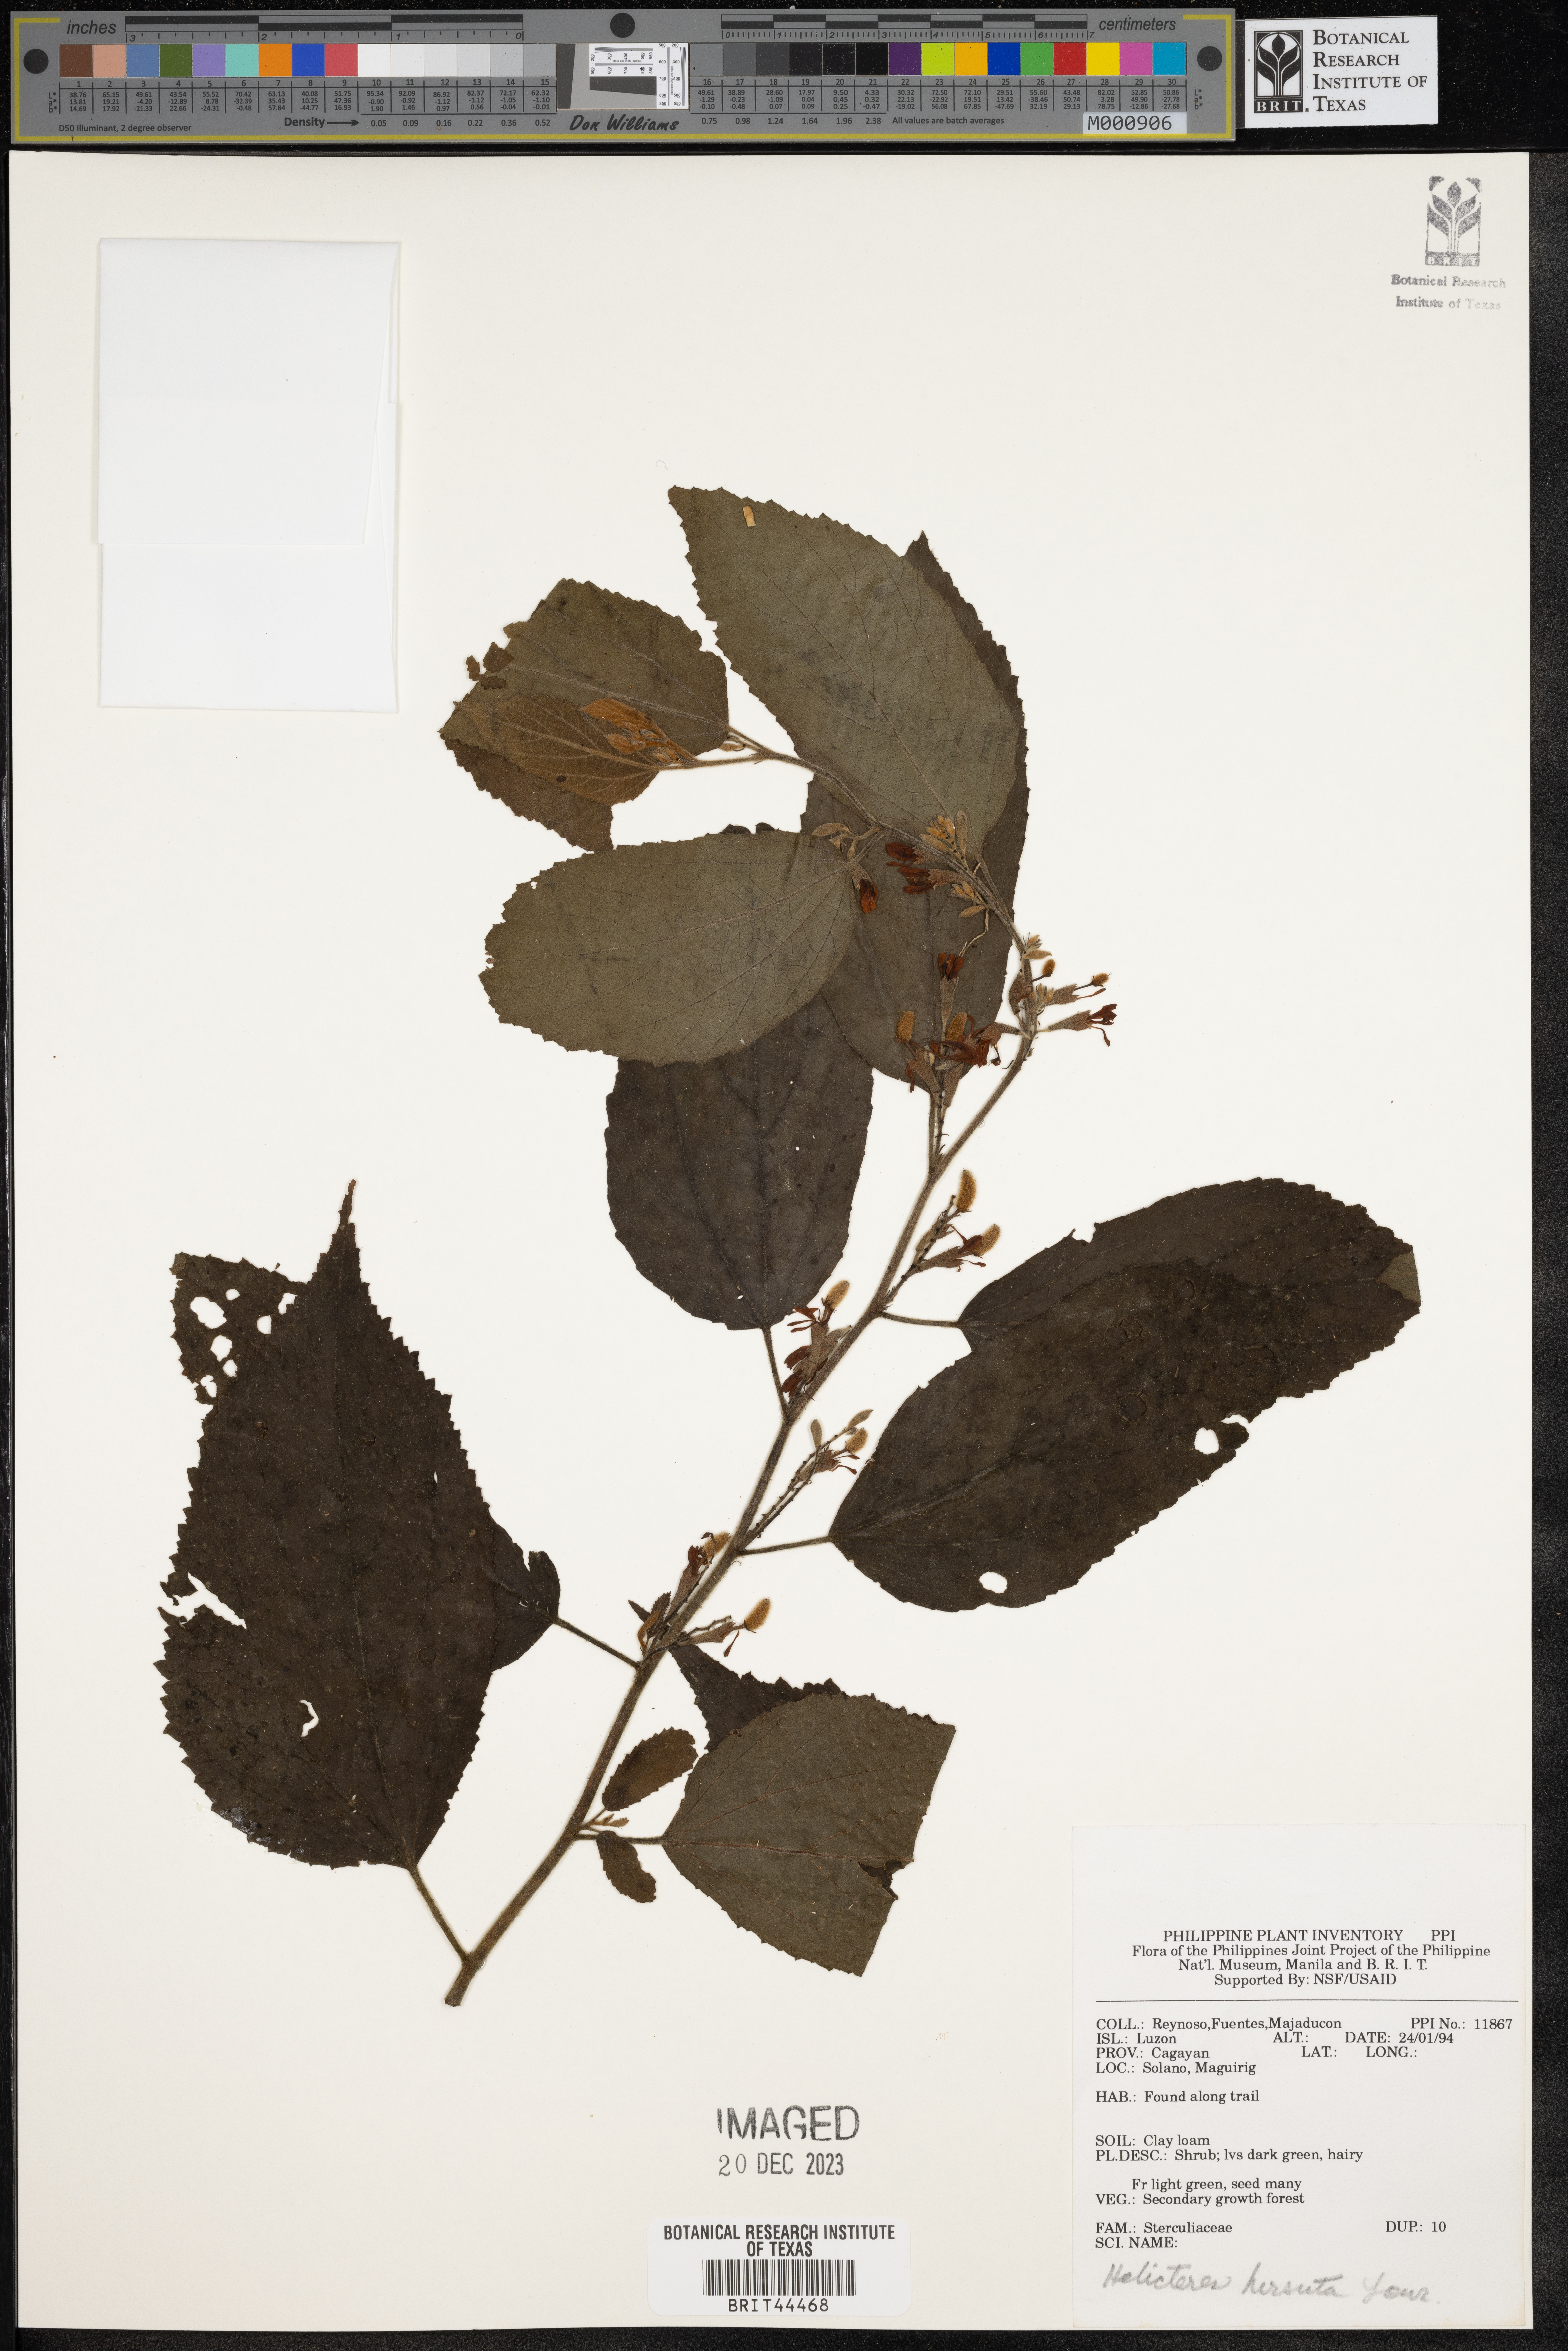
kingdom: Plantae
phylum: Tracheophyta
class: Magnoliopsida
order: Malvales
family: Malvaceae
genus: Helicteres
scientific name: Helicteres hirsuta
